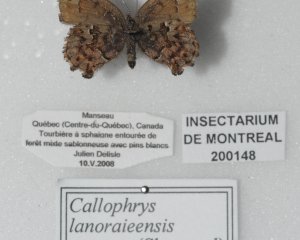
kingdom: Animalia
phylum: Arthropoda
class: Insecta
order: Lepidoptera
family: Lycaenidae
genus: Incisalia
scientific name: Incisalia lanoraieensis
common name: Bog Elfin
